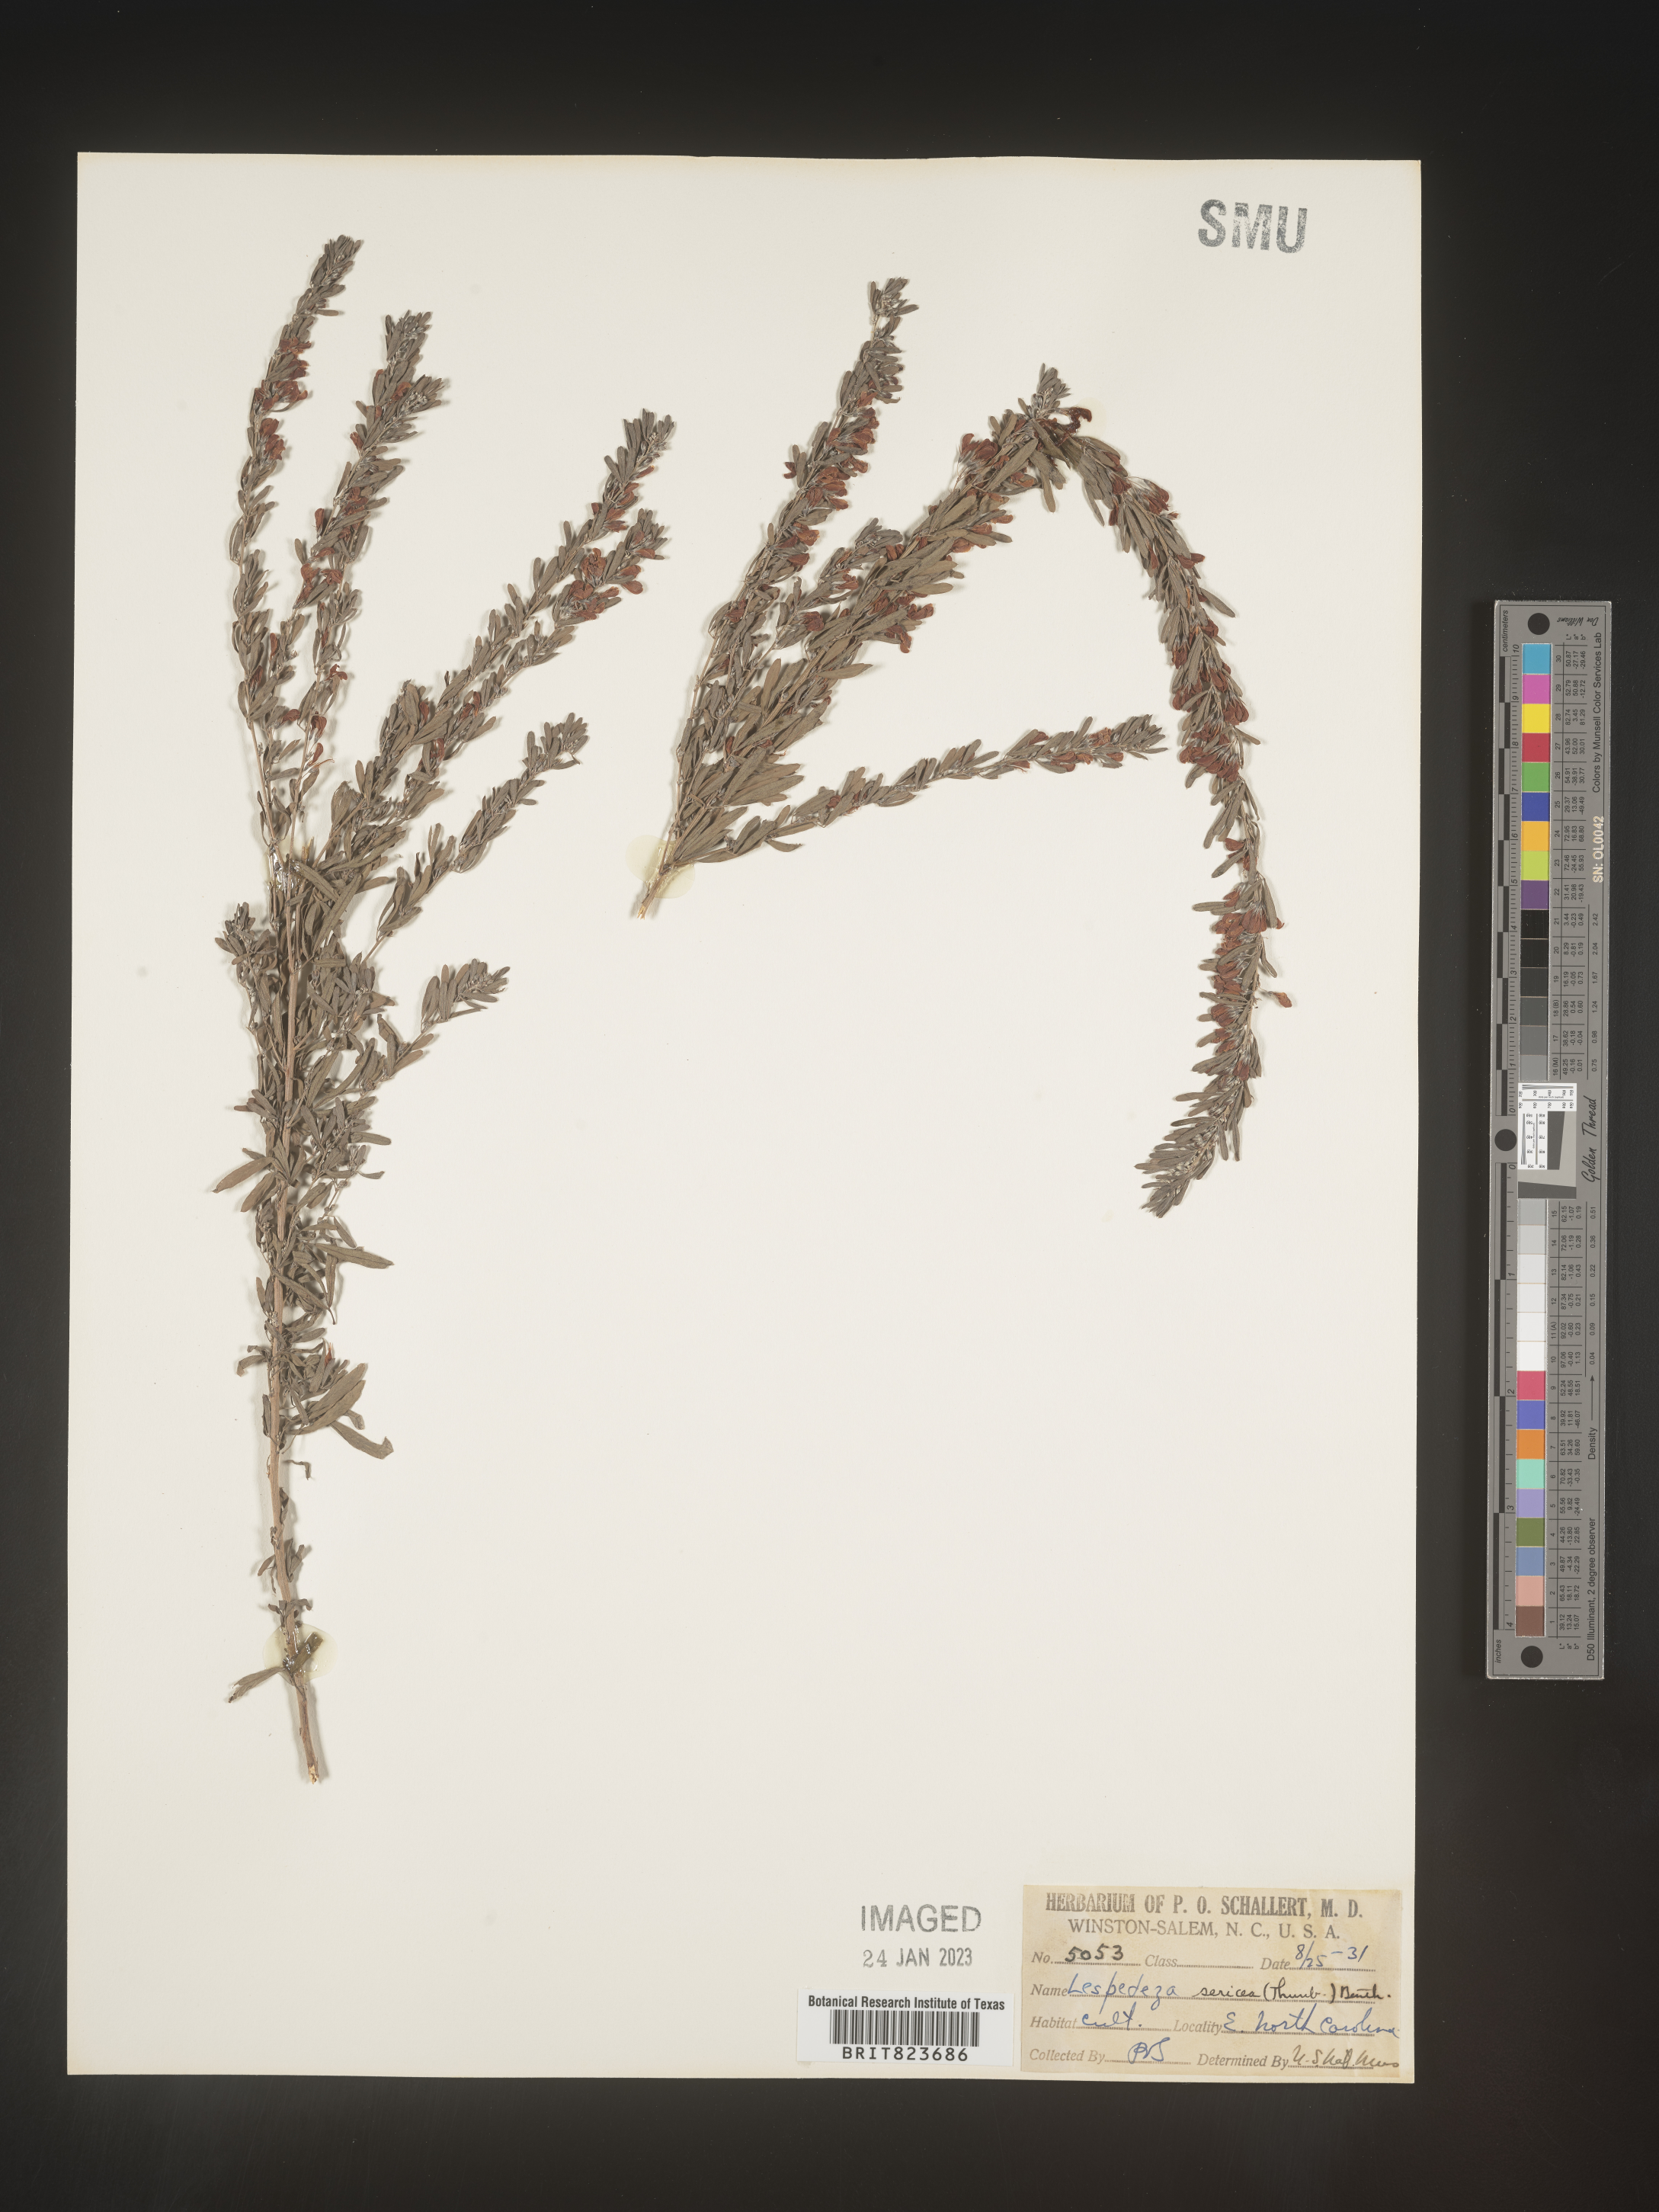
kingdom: Plantae
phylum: Tracheophyta
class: Magnoliopsida
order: Fabales
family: Fabaceae
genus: Lespedeza
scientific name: Lespedeza
